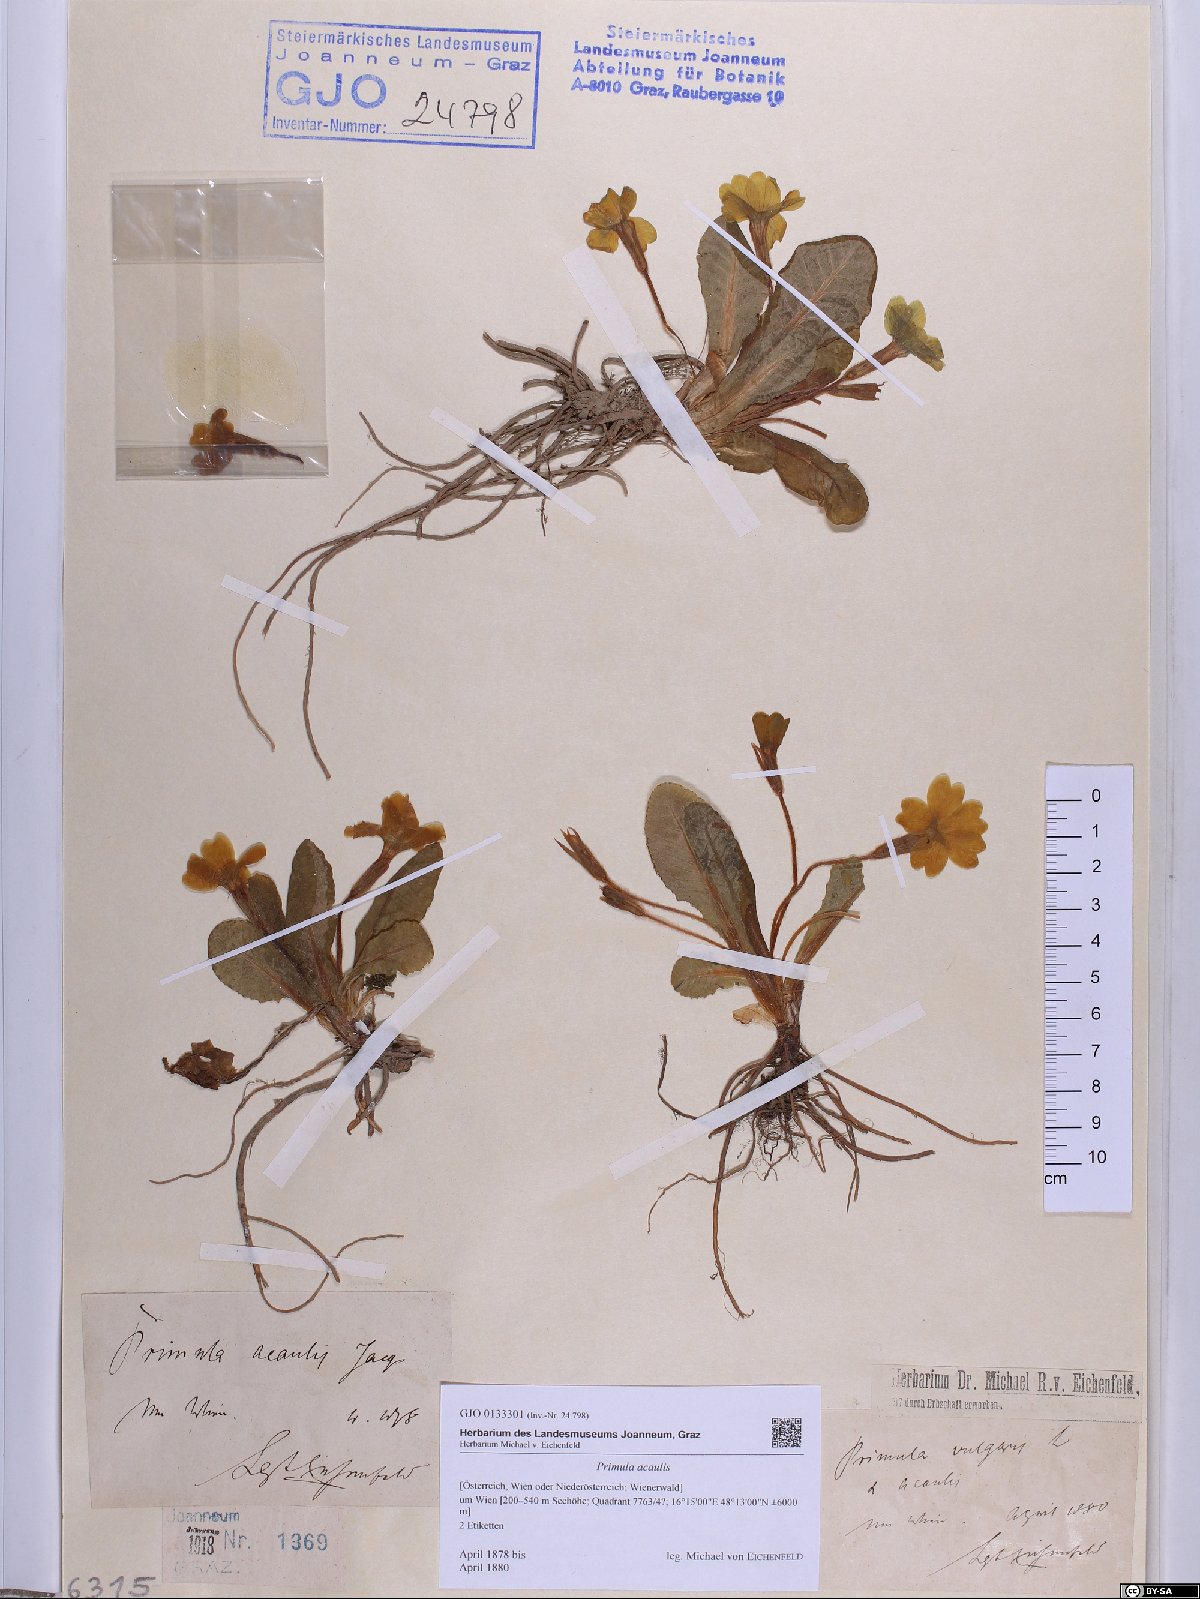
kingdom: Plantae
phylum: Tracheophyta
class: Magnoliopsida
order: Ericales
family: Primulaceae
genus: Primula
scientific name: Primula vulgaris
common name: Primrose
